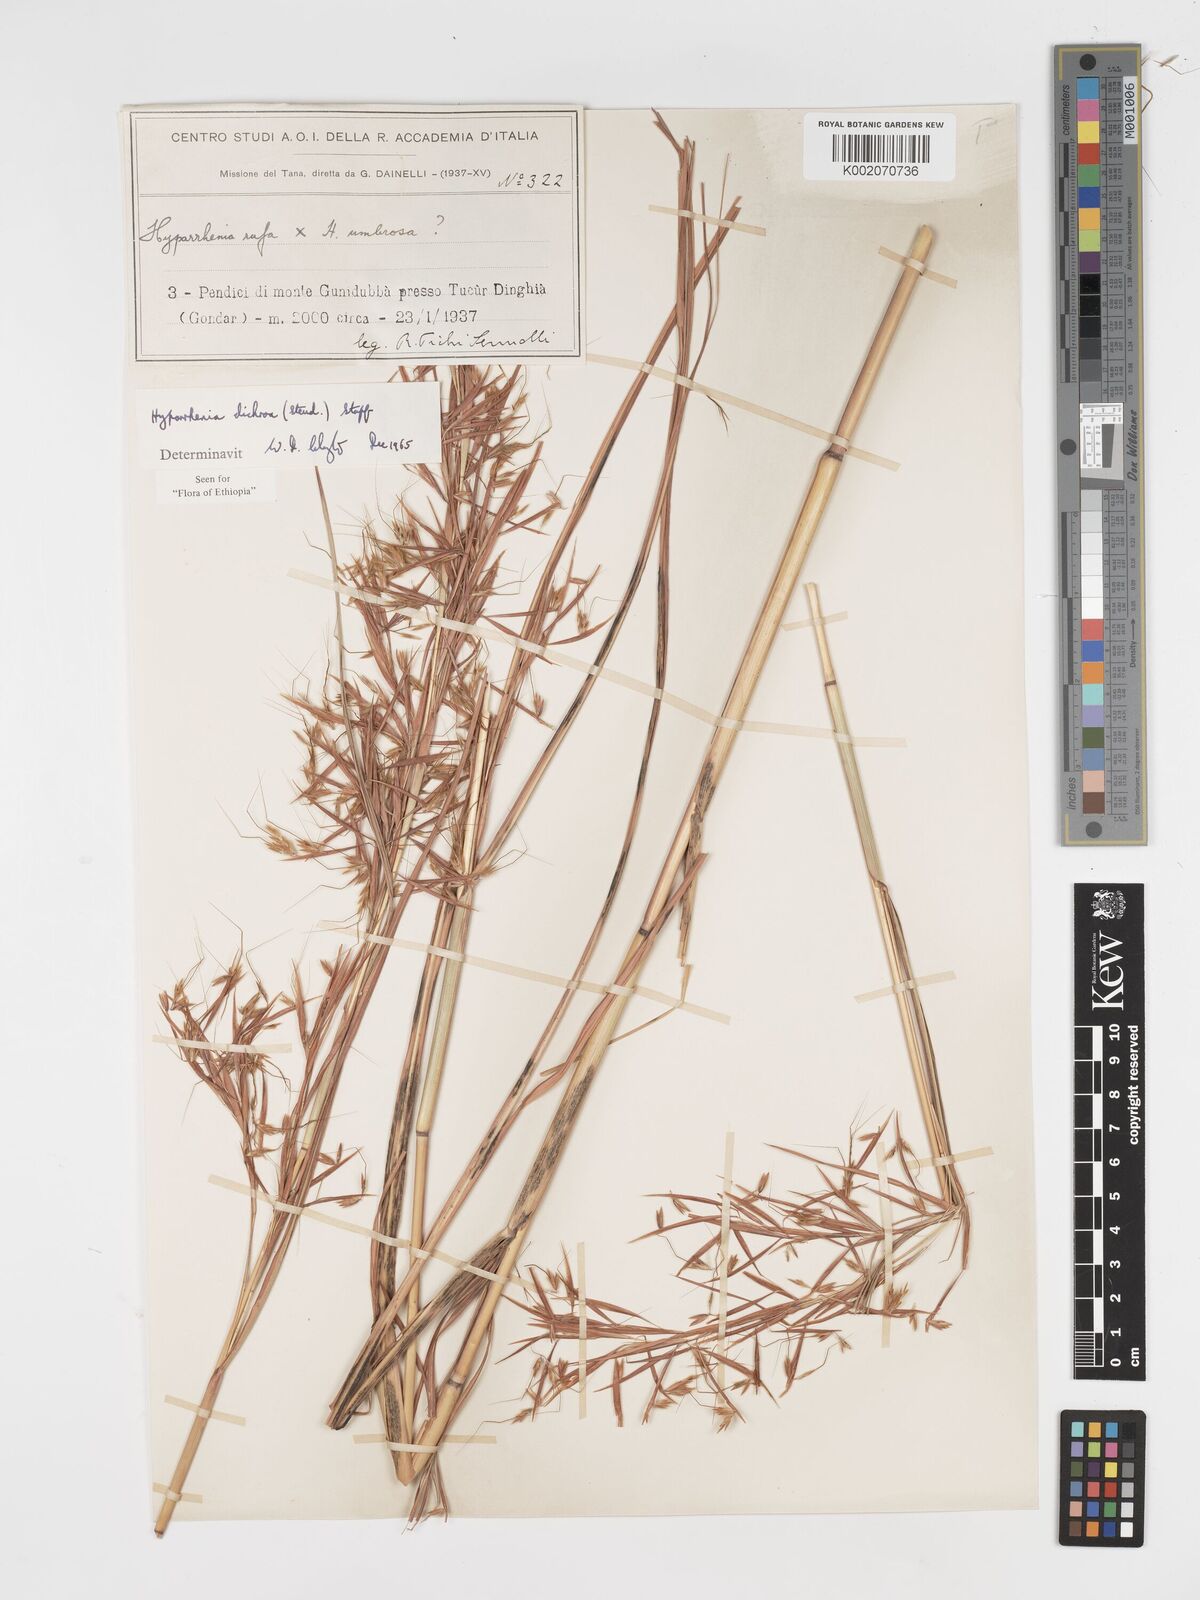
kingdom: Plantae
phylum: Tracheophyta
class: Liliopsida
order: Poales
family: Poaceae
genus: Hyparrhenia
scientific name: Hyparrhenia dichroa
